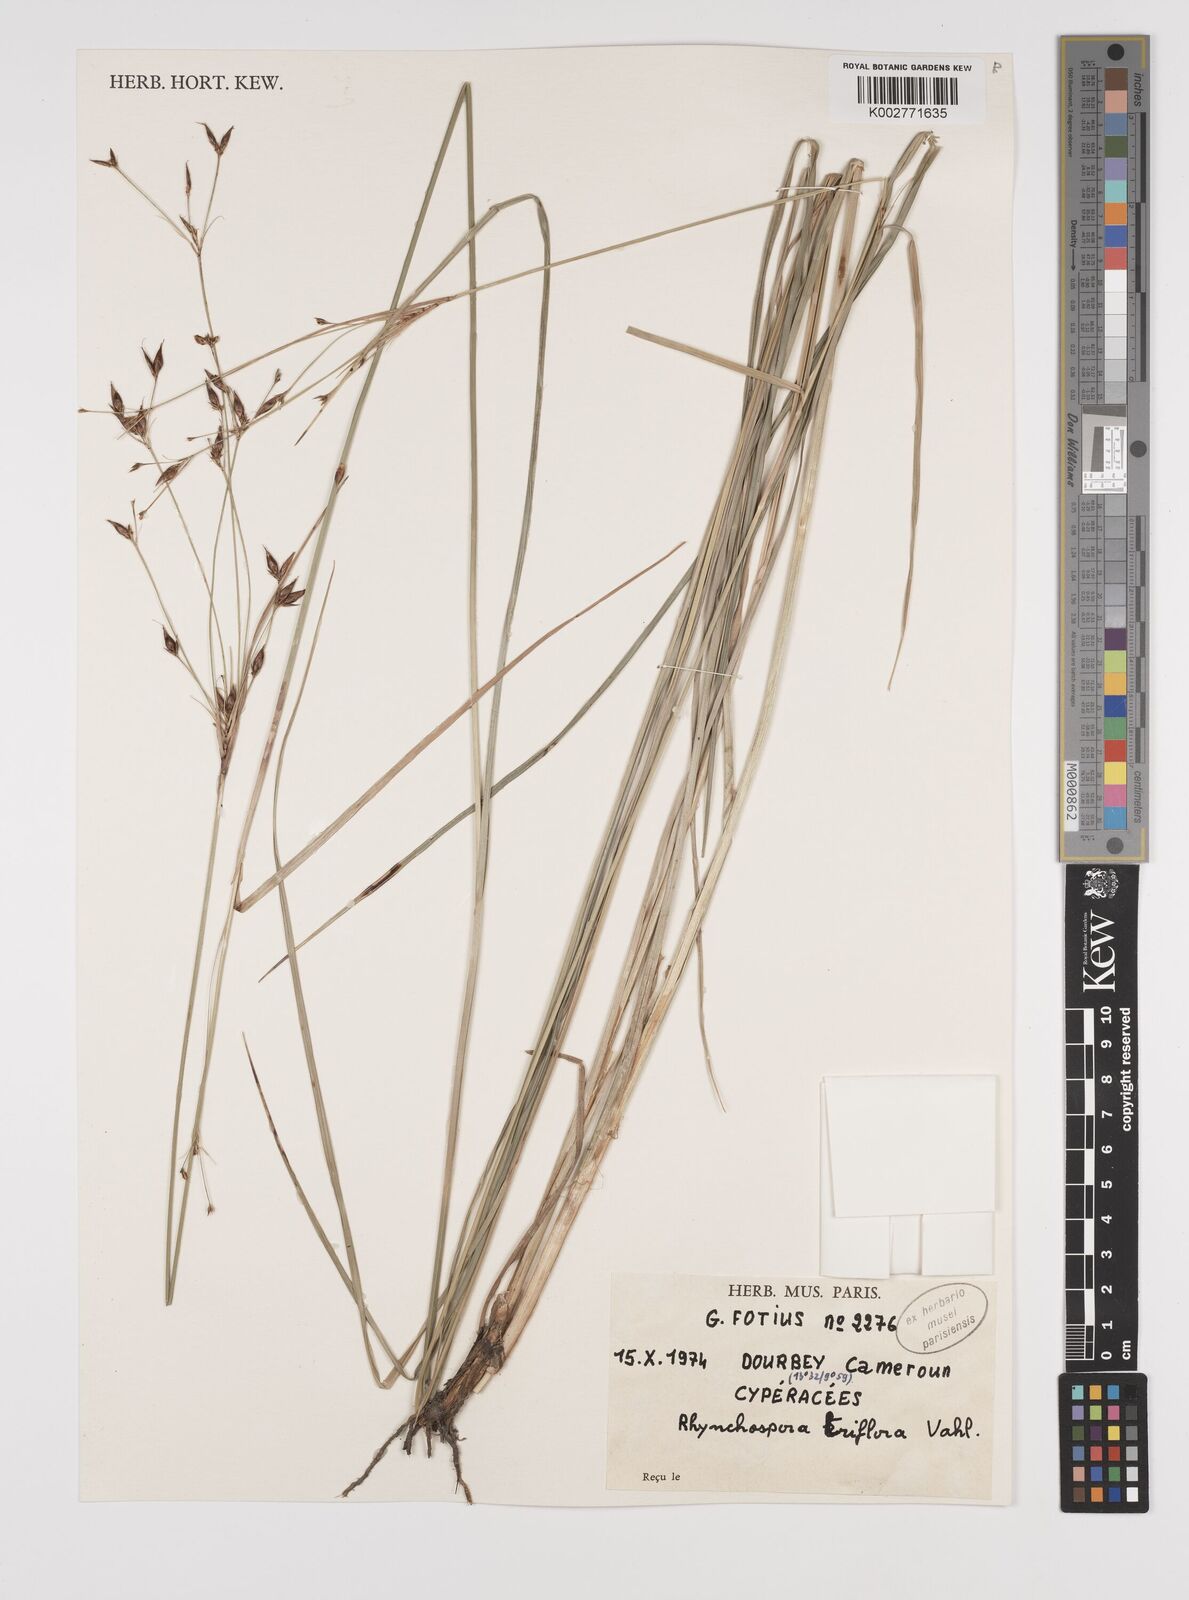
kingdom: Plantae
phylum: Tracheophyta
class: Liliopsida
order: Poales
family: Cyperaceae
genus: Rhynchospora
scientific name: Rhynchospora triflora
